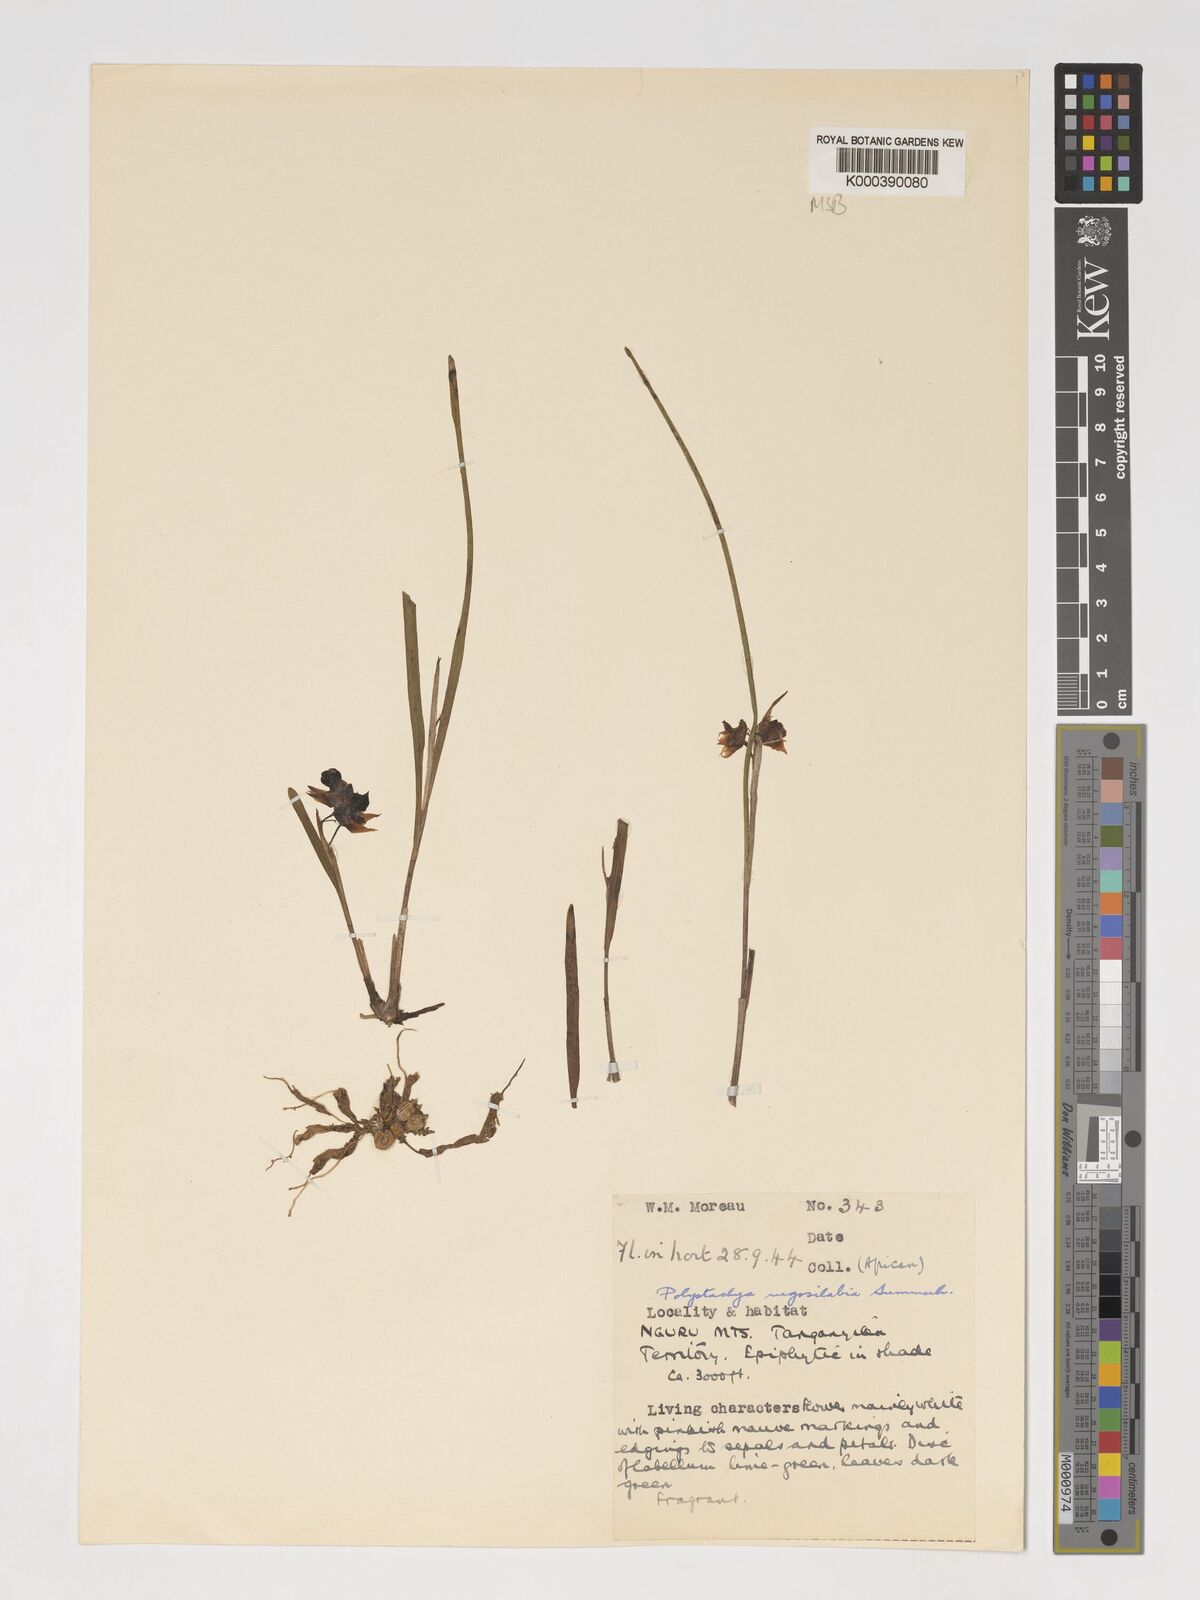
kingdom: Plantae
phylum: Tracheophyta
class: Liliopsida
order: Asparagales
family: Orchidaceae
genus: Polystachya
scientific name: Polystachya rugosilabia
